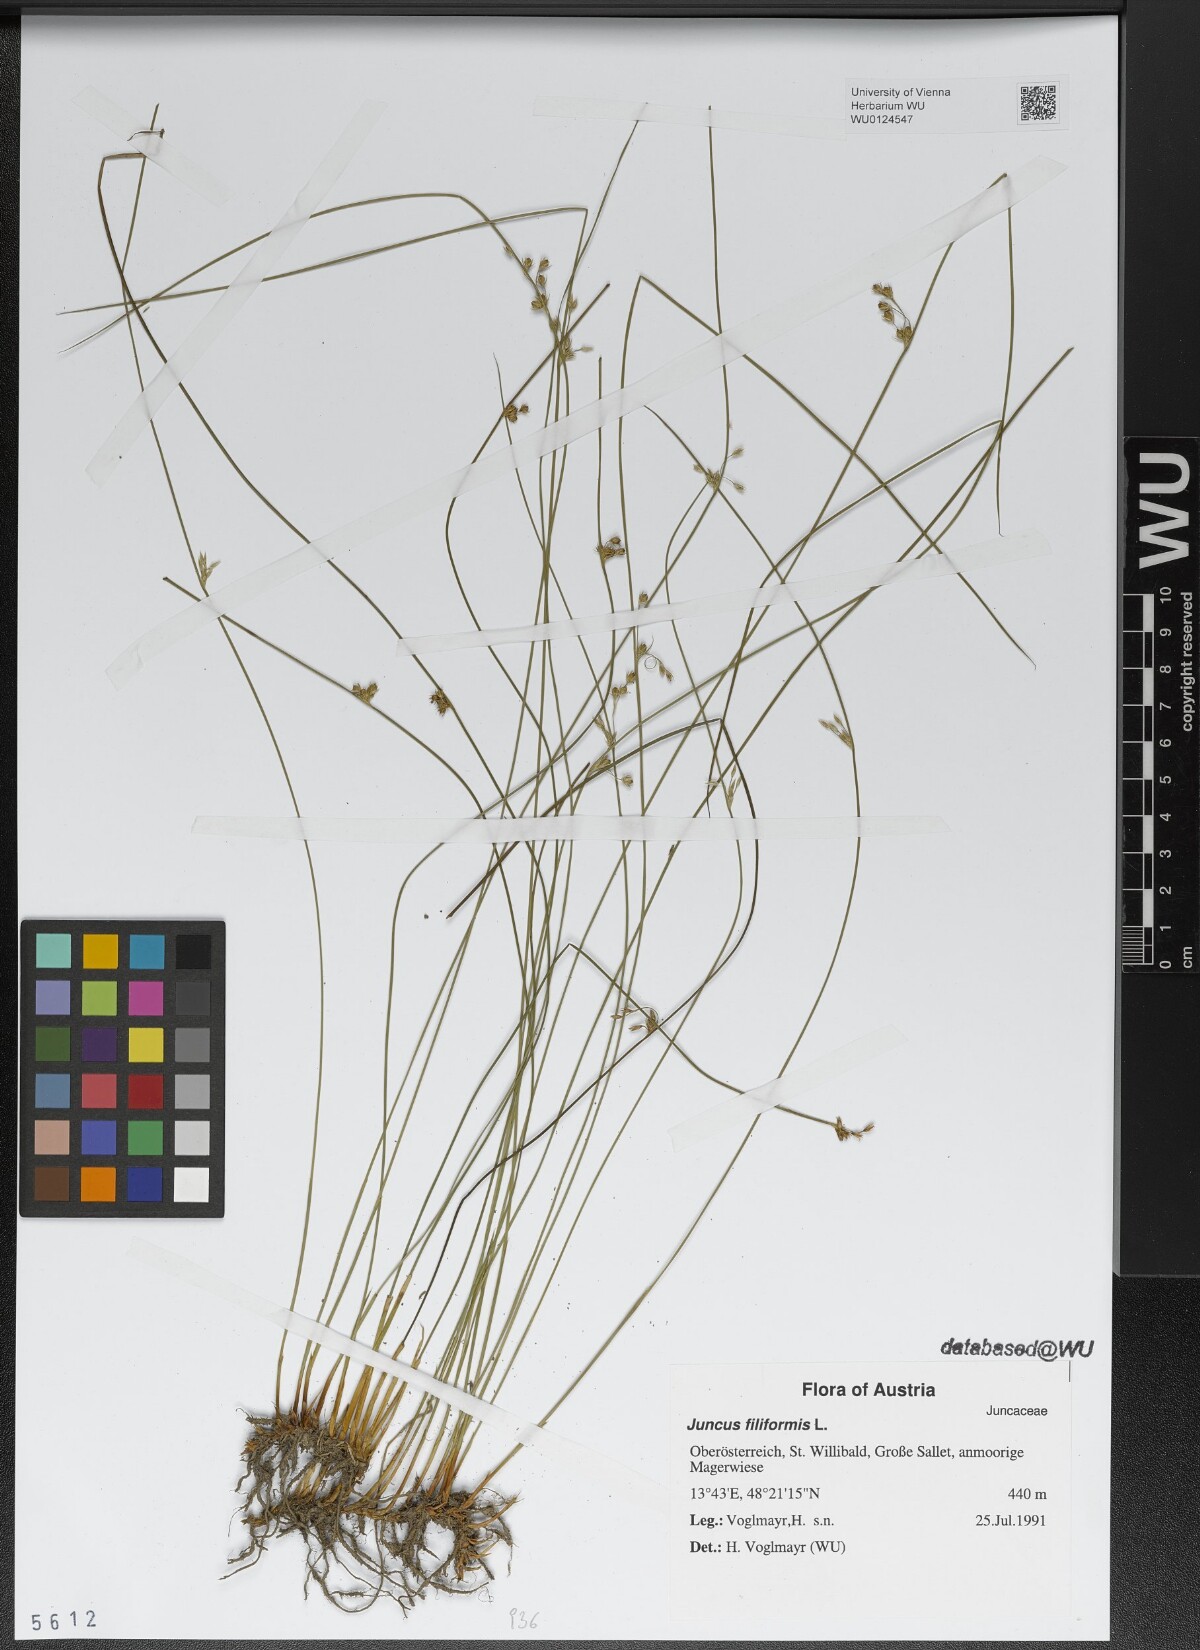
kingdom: Plantae
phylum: Tracheophyta
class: Liliopsida
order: Poales
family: Juncaceae
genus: Juncus
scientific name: Juncus filiformis
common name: Thread rush
